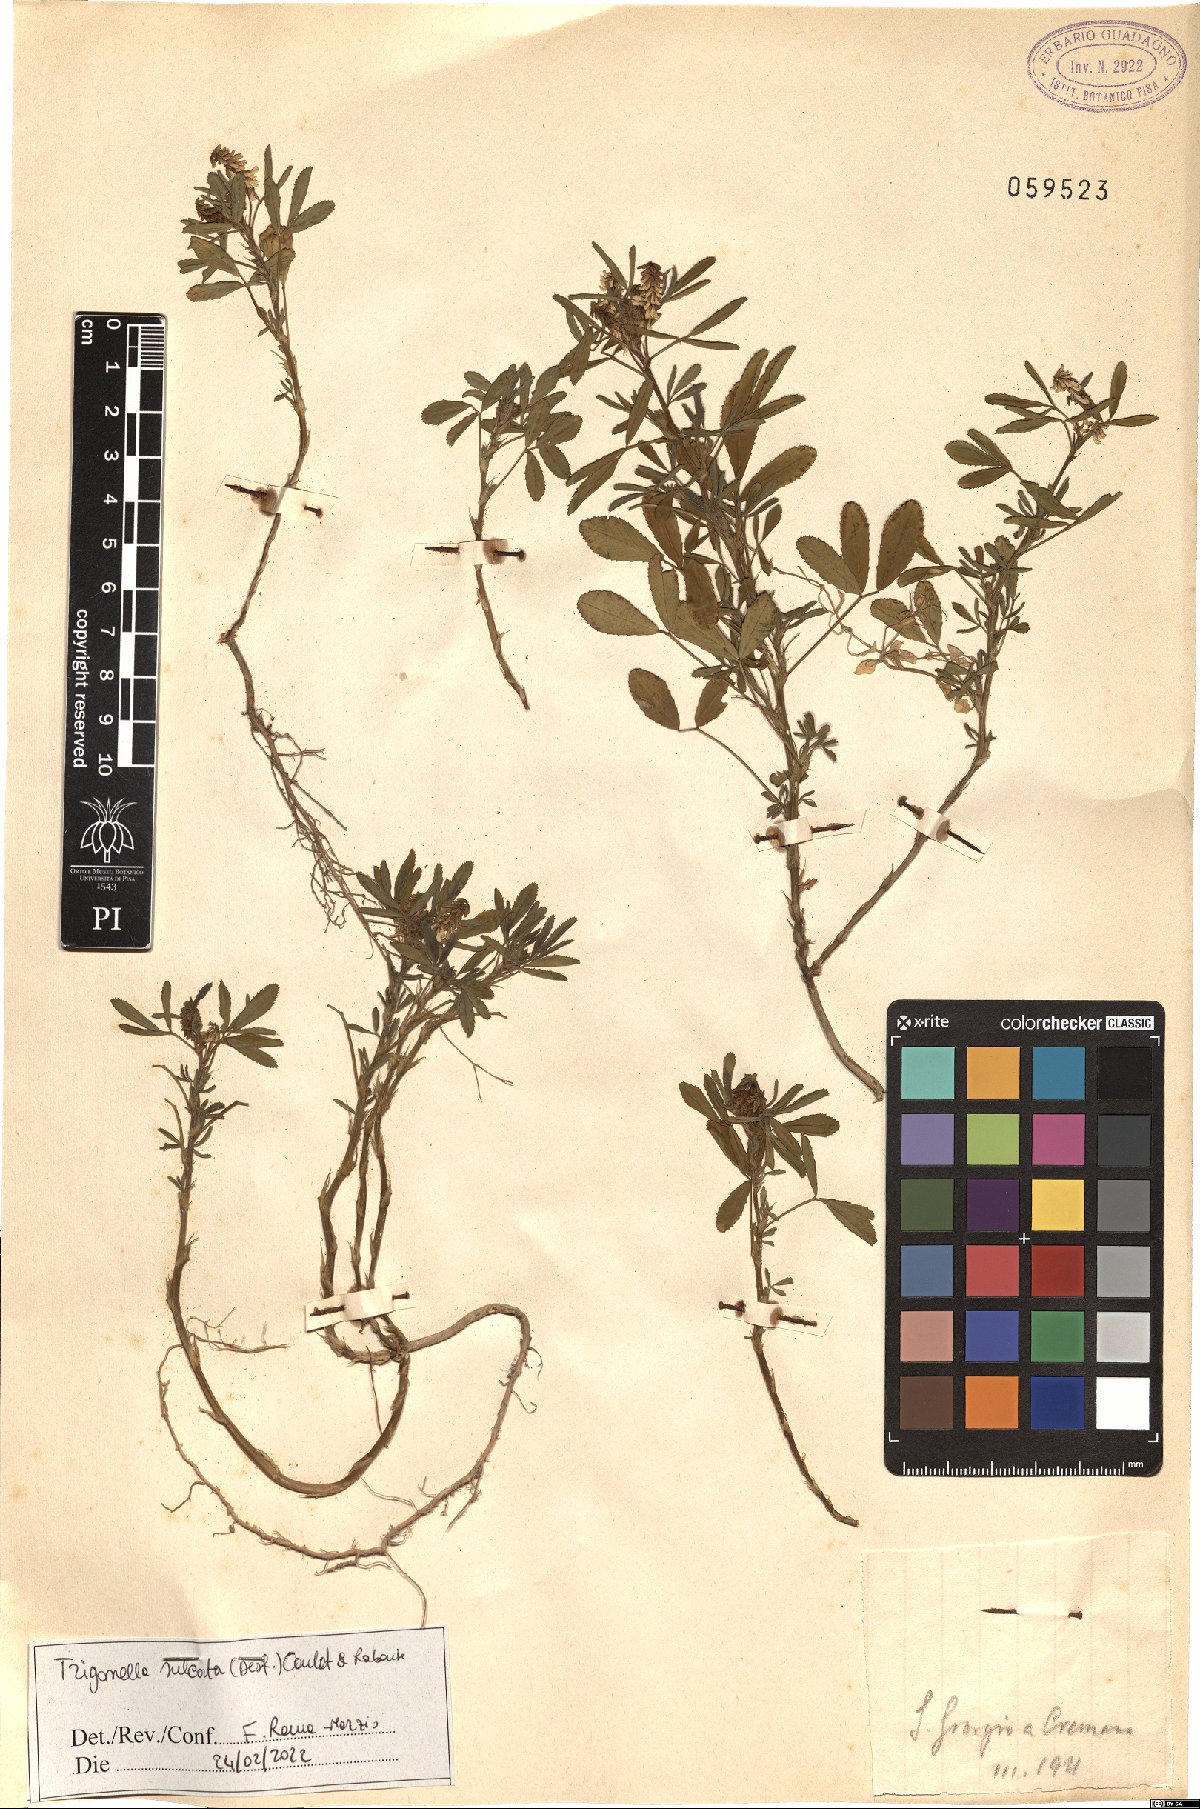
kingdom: Plantae
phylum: Tracheophyta
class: Magnoliopsida
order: Fabales
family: Fabaceae
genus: Melilotus
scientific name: Melilotus sulcatus
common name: Furrowed melilot
